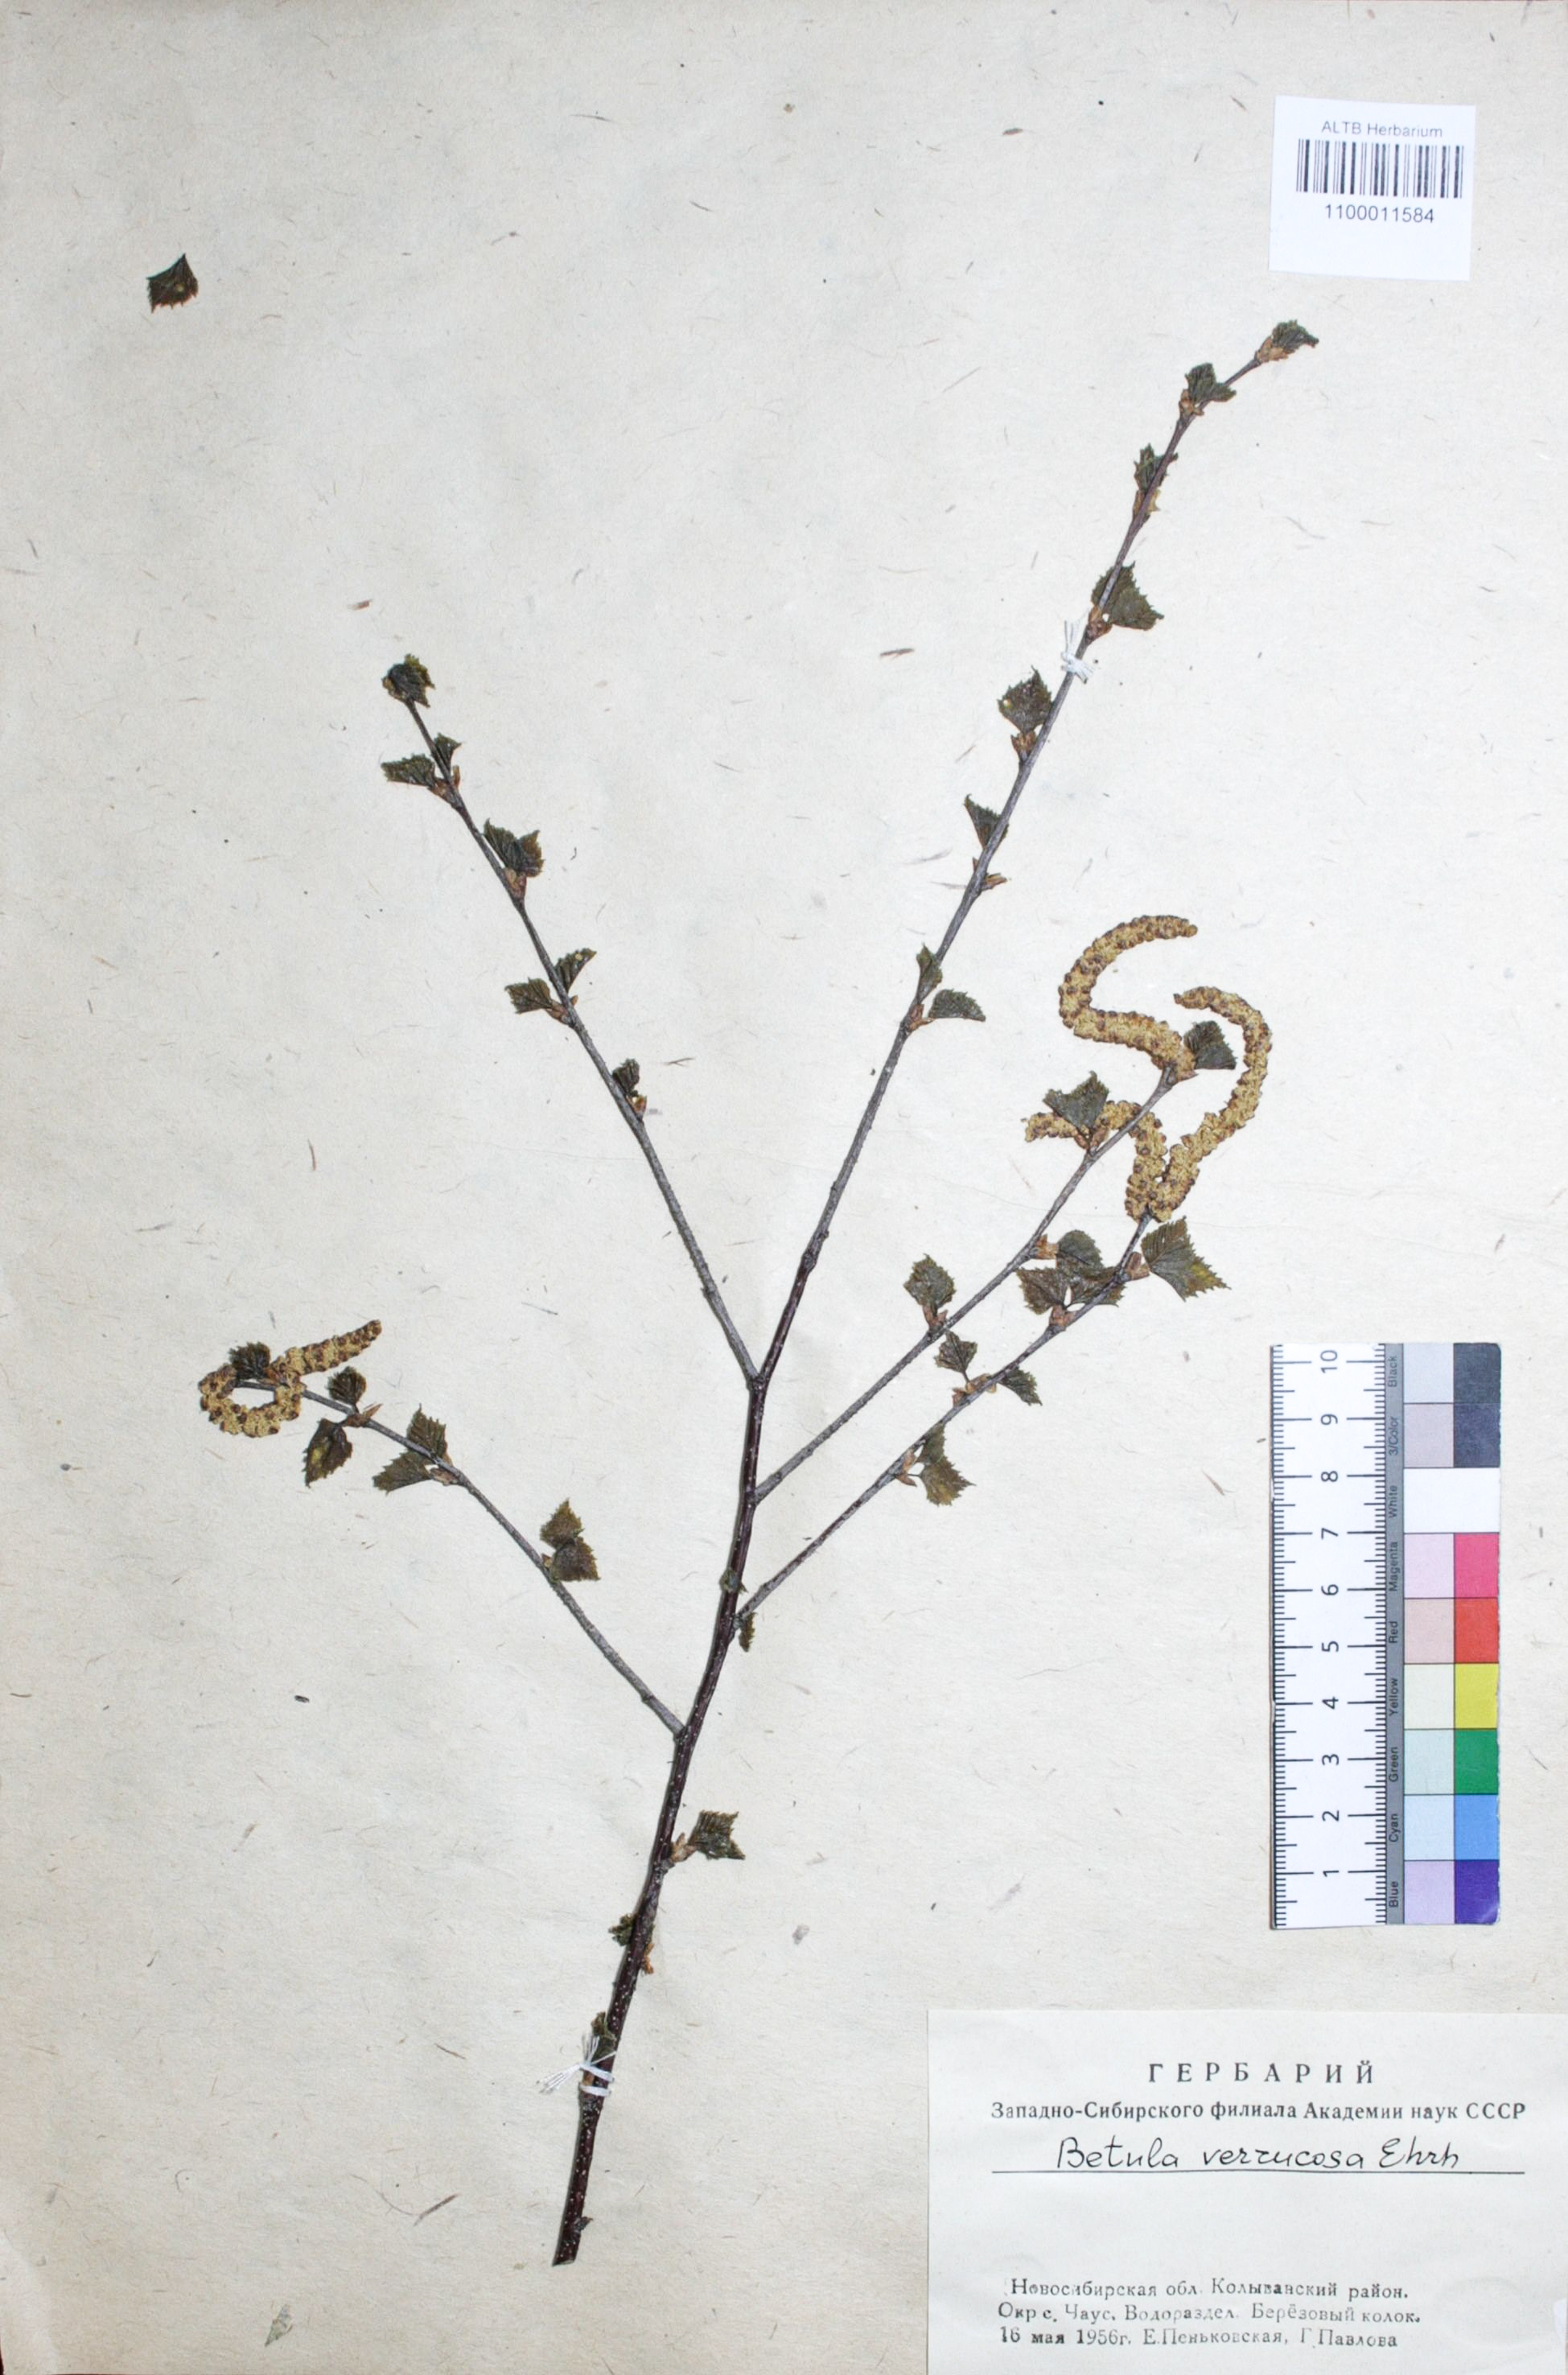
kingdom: Plantae
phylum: Tracheophyta
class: Magnoliopsida
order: Fagales
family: Betulaceae
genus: Betula
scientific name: Betula pendula
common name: Silver birch
